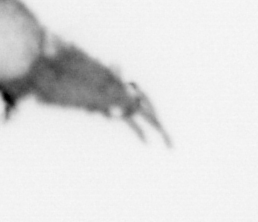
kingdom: Animalia
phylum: Annelida
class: Polychaeta
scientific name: Polychaeta
